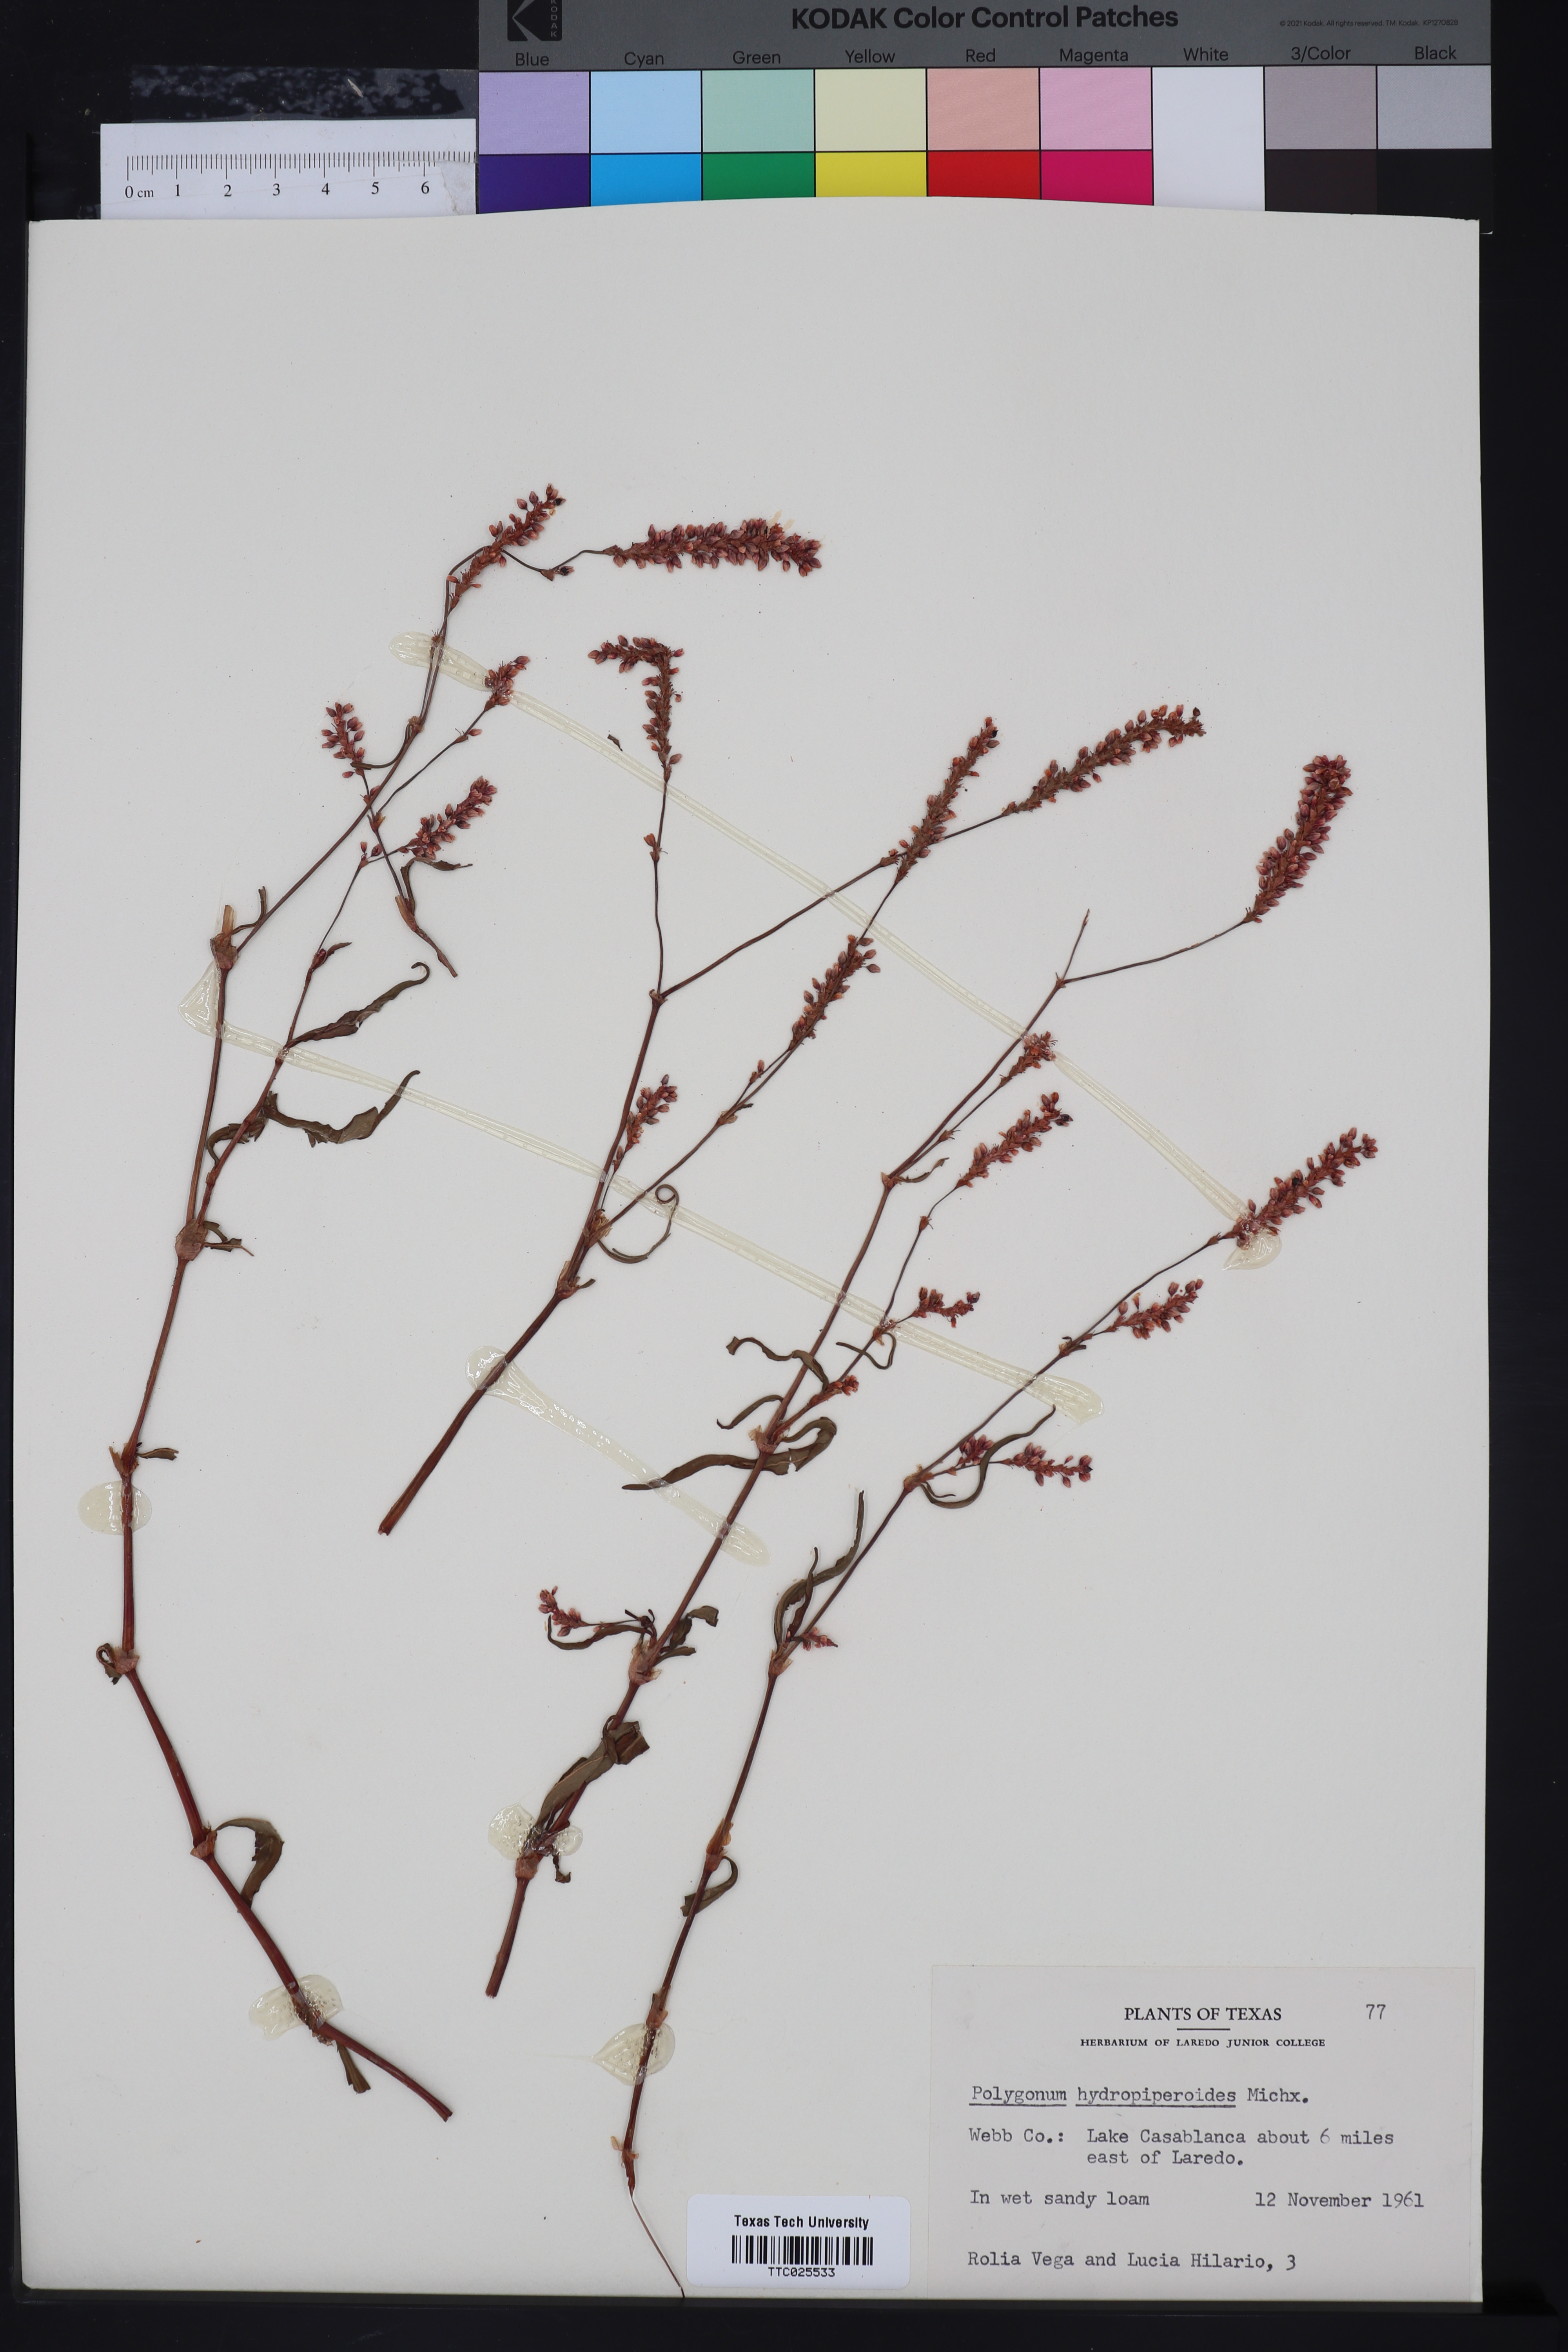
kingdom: Plantae
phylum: Tracheophyta
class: Magnoliopsida
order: Caryophyllales
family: Polygonaceae
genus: Persicaria
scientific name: Persicaria hydropiperoides
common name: Swamp smartweed
